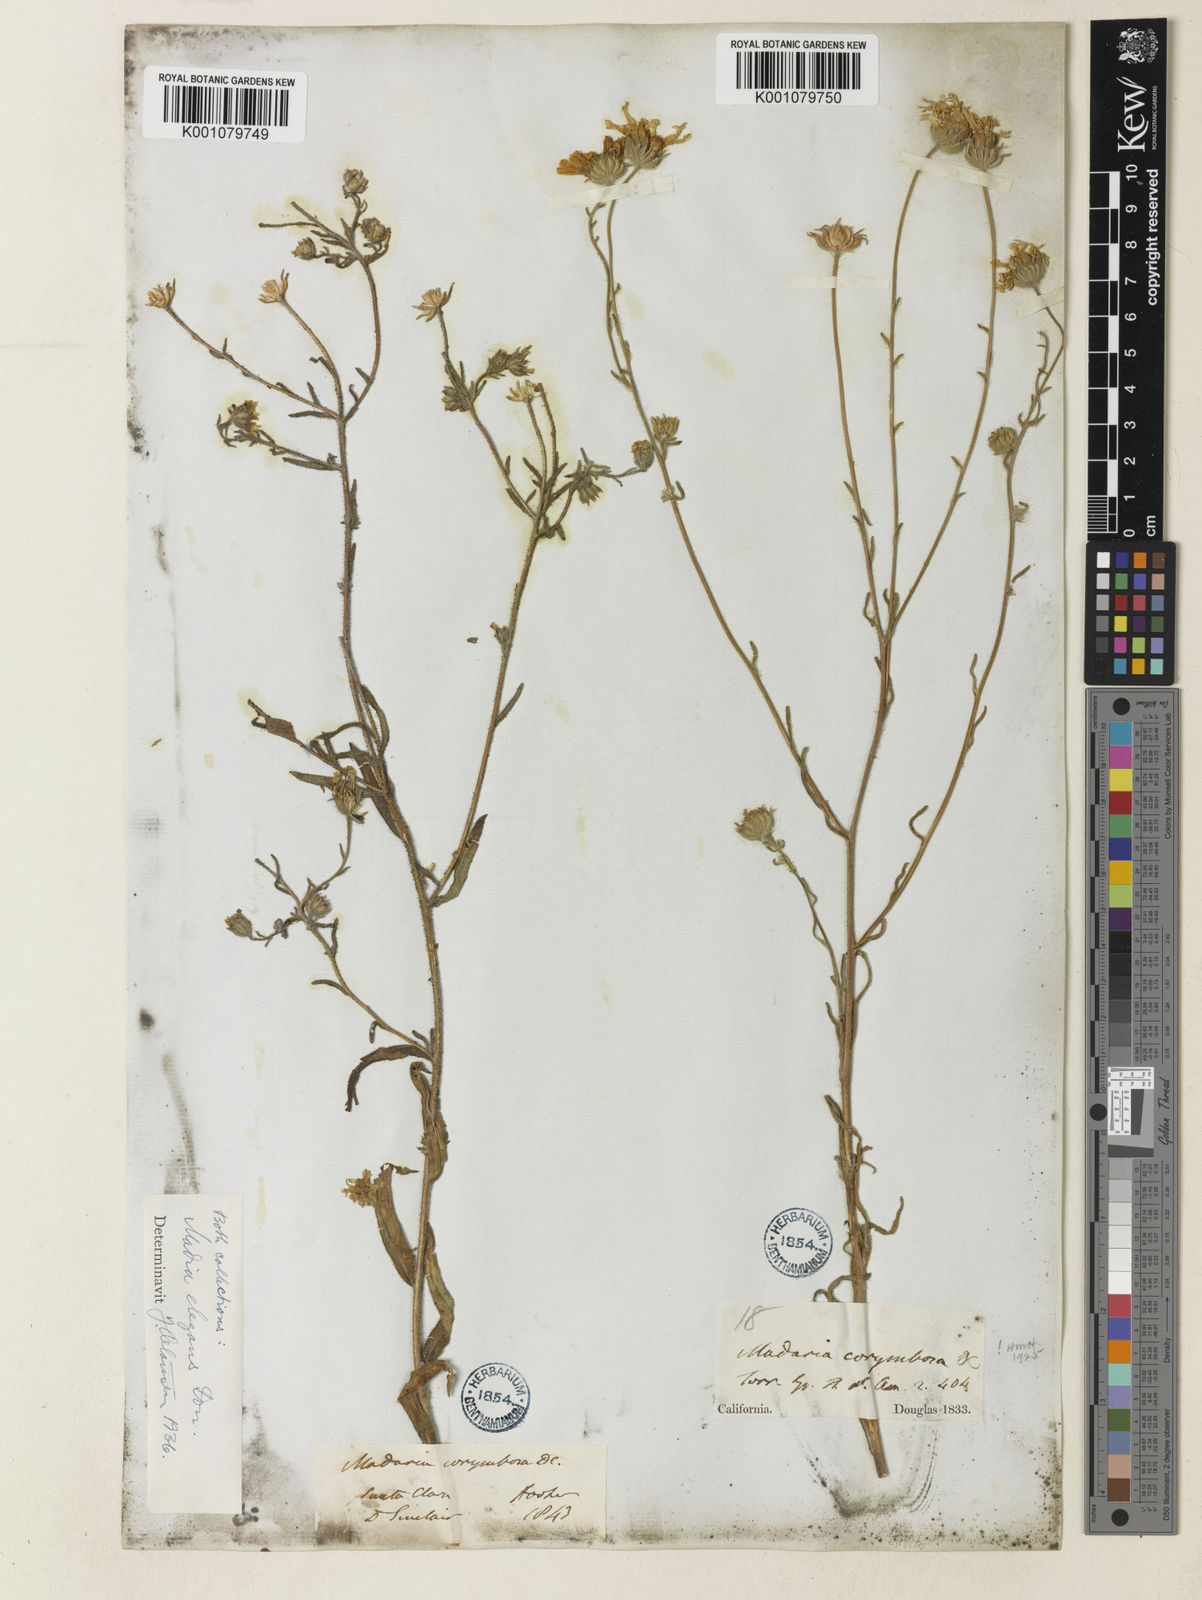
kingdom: Plantae
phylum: Tracheophyta
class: Magnoliopsida
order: Asterales
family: Asteraceae
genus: Madia
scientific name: Madia elegans
